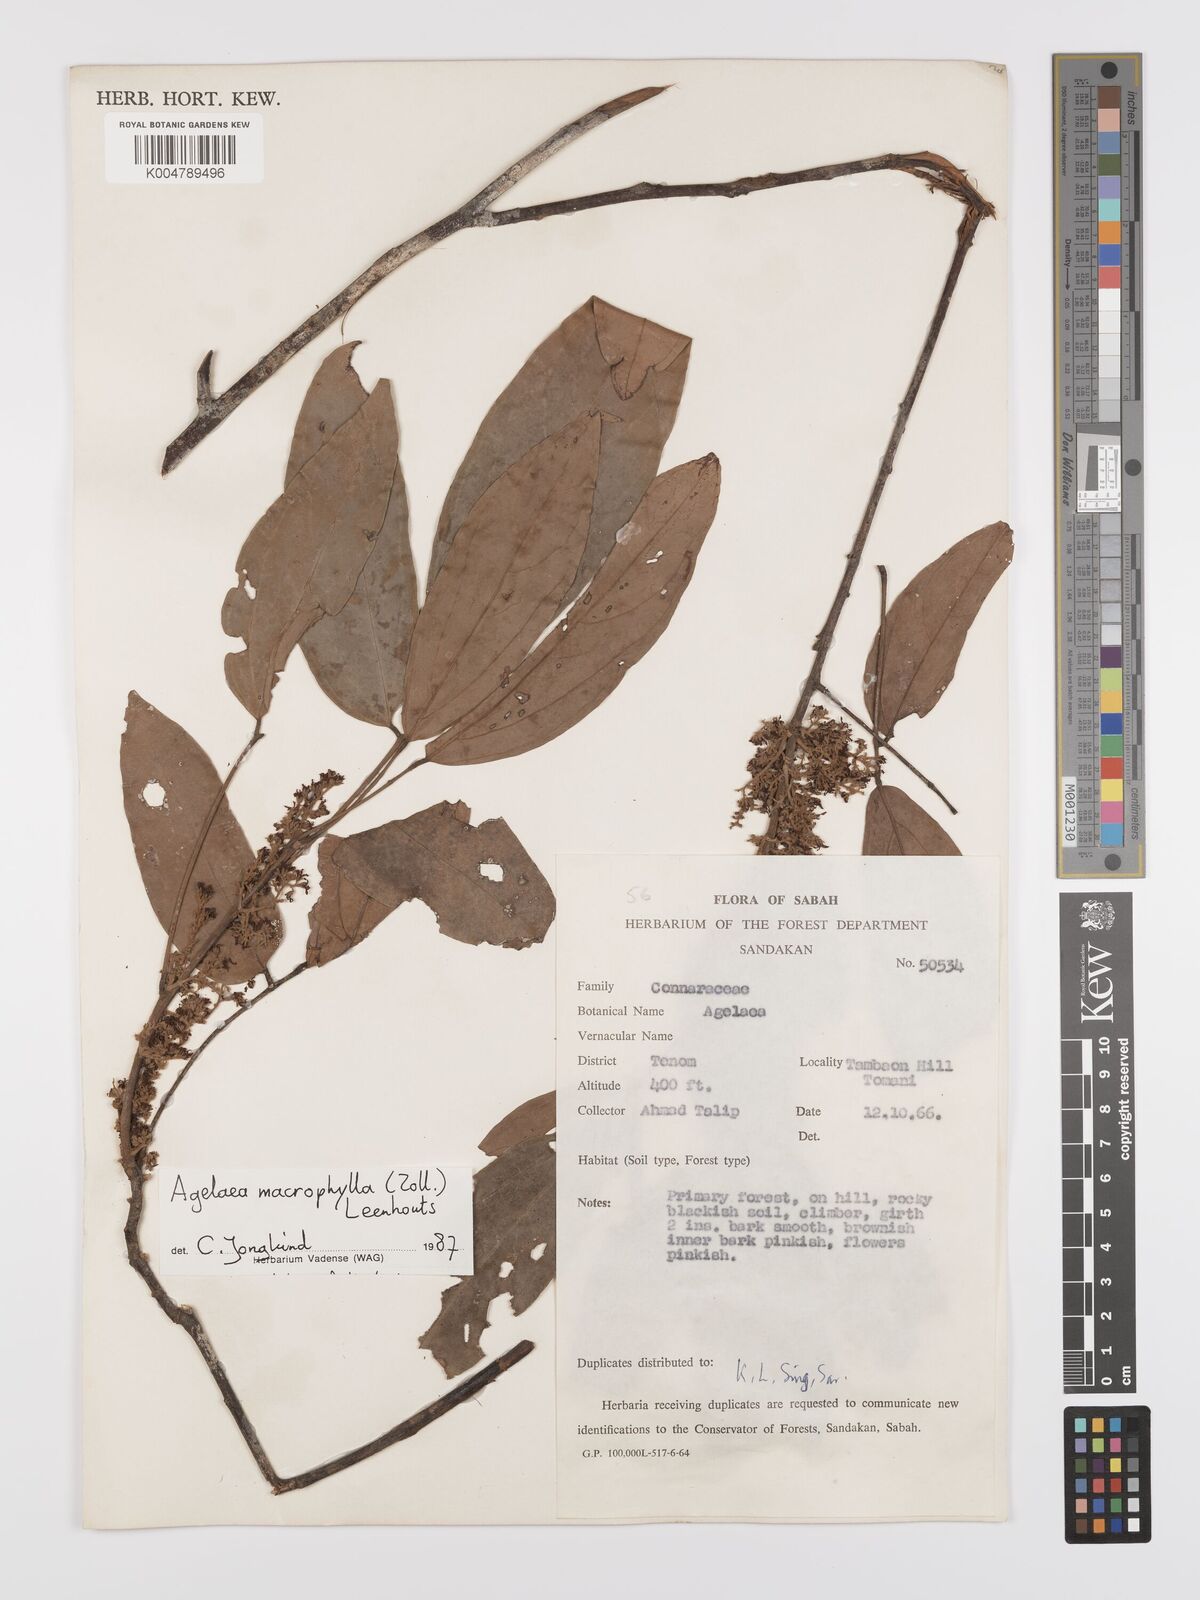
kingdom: Plantae
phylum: Tracheophyta
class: Magnoliopsida
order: Oxalidales
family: Connaraceae
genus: Agelaea
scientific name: Agelaea macrophylla
